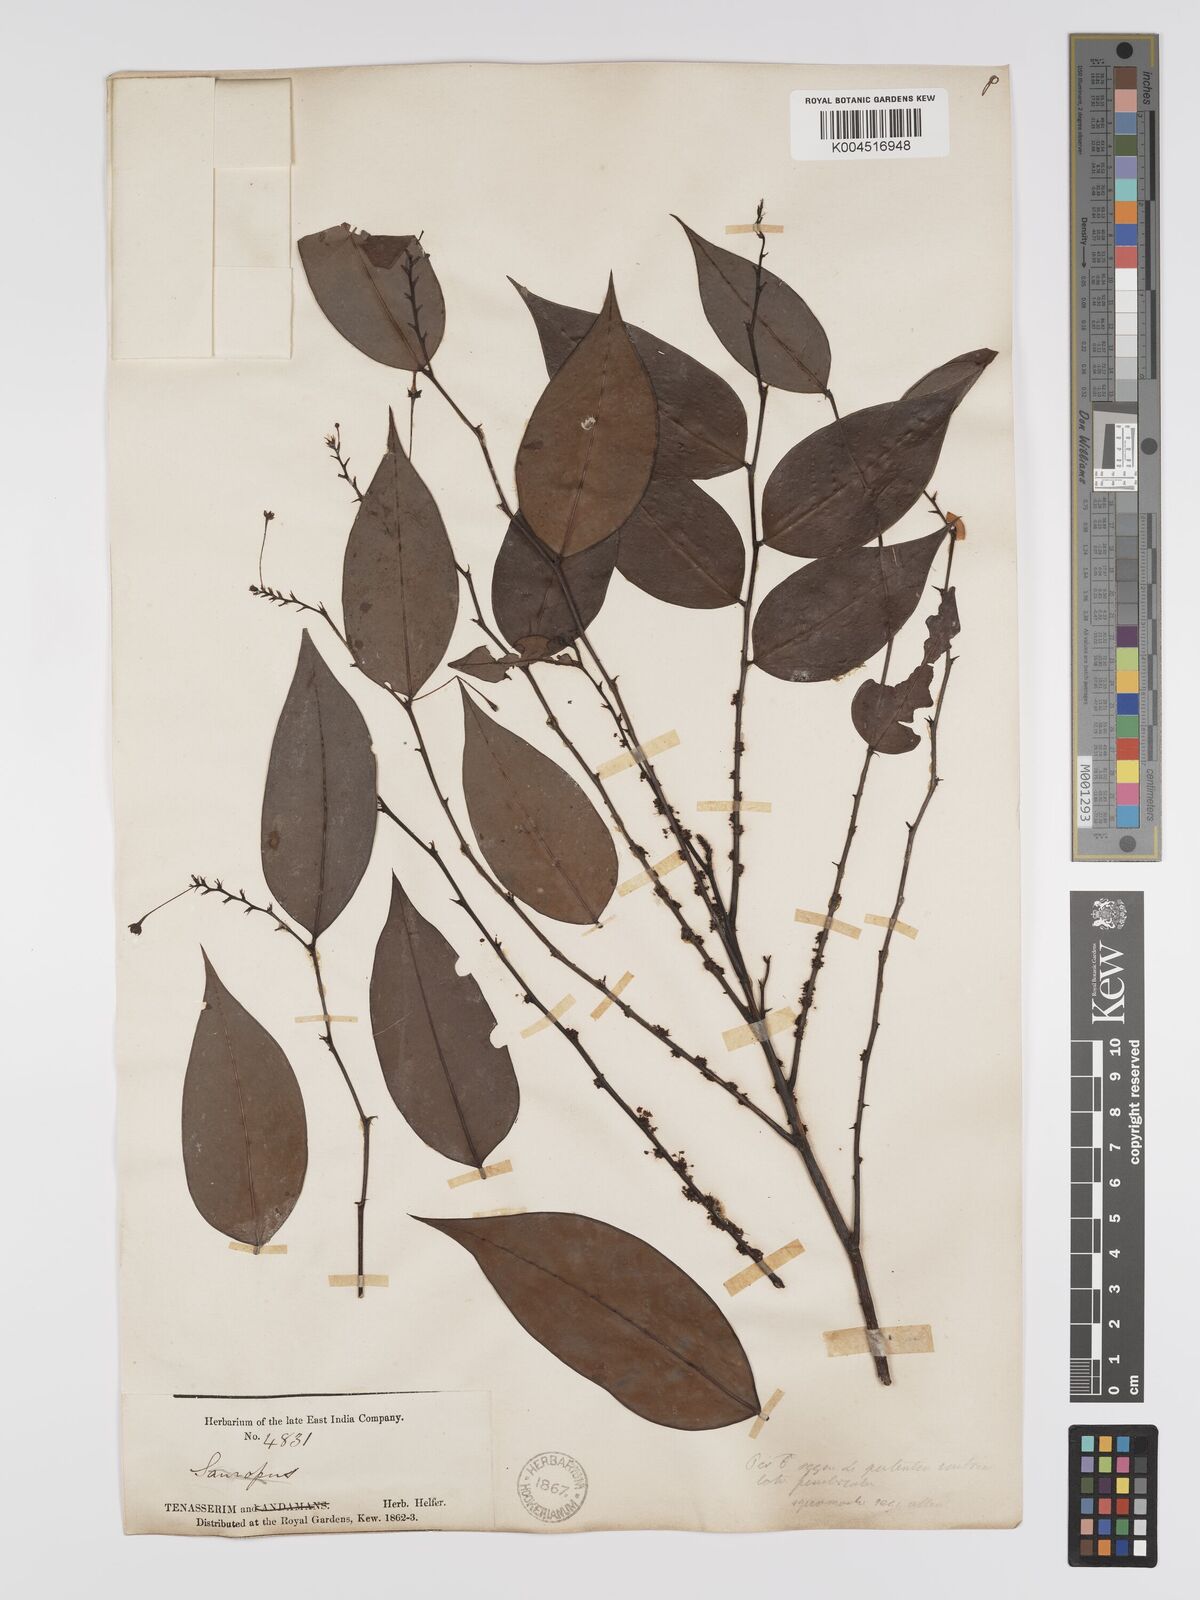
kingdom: Plantae
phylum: Tracheophyta
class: Magnoliopsida
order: Malpighiales
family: Phyllanthaceae
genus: Phyllanthus
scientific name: Phyllanthus elegans
